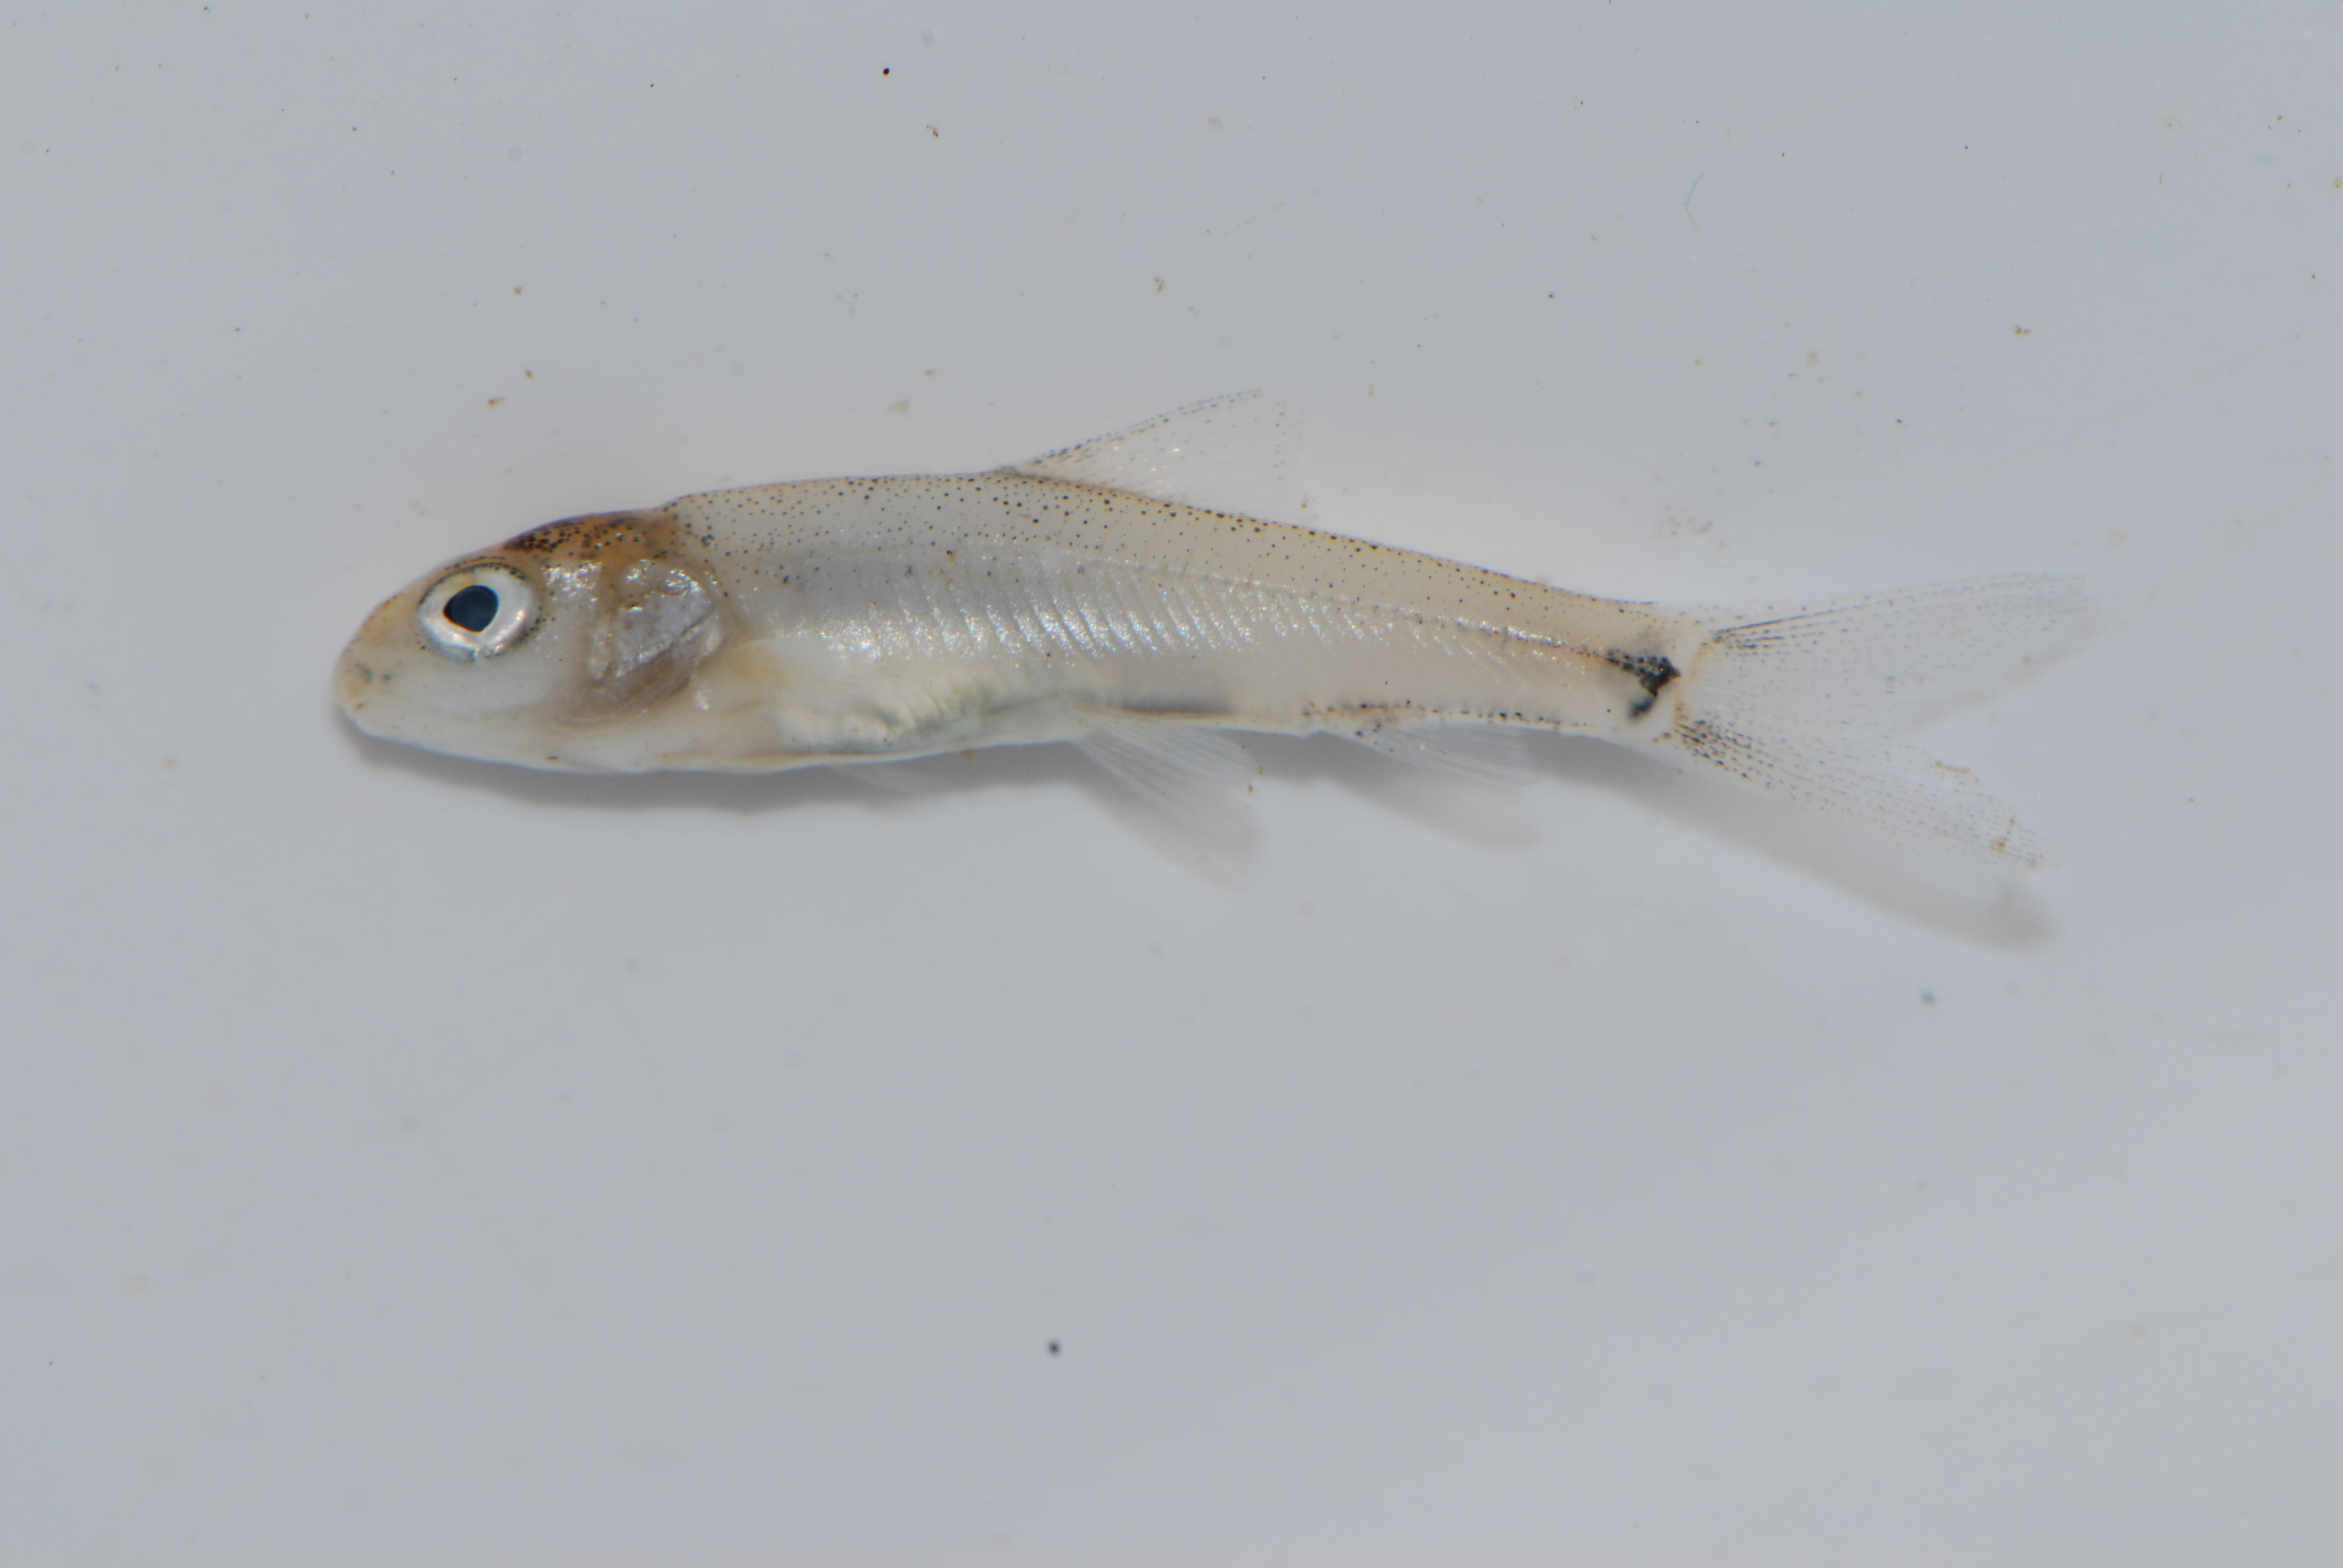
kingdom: Animalia
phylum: Chordata
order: Cypriniformes
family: Cyprinidae
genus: Labeobarbus
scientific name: Labeobarbus codringtonii
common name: Upper zambezi yellowfish
